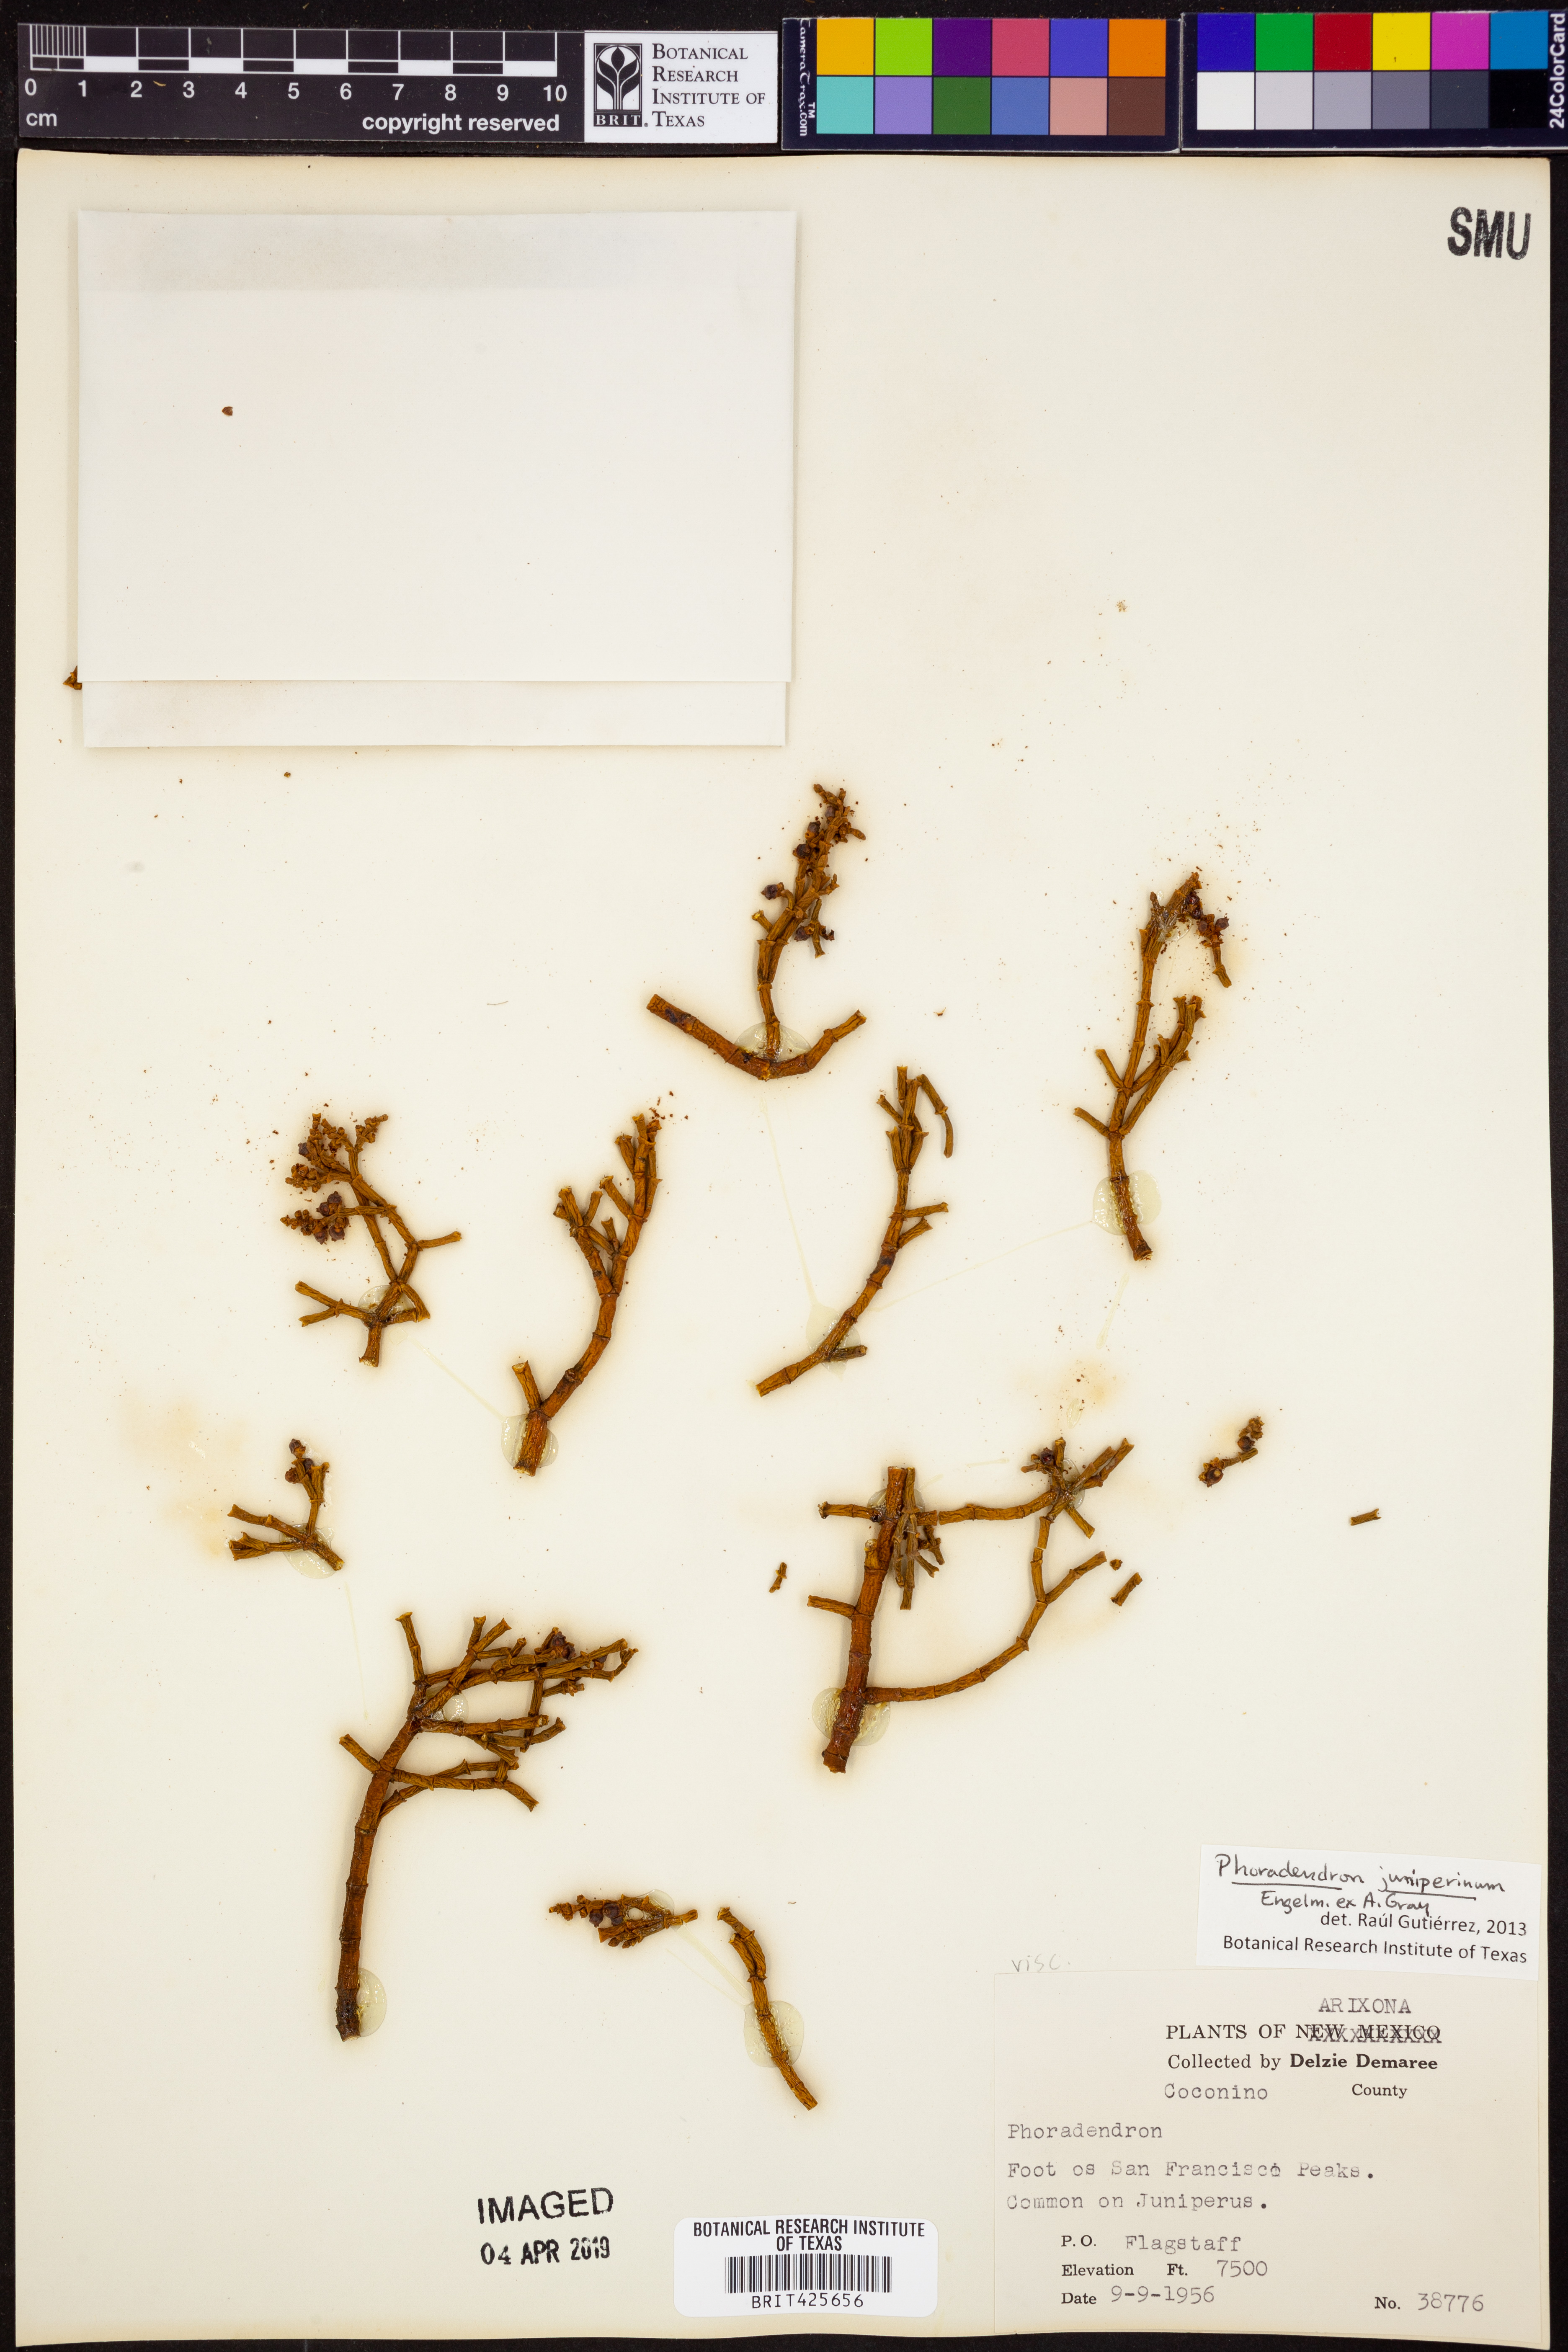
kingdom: Plantae
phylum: Tracheophyta
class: Magnoliopsida
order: Santalales
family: Viscaceae
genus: Phoradendron
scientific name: Phoradendron juniperinum
